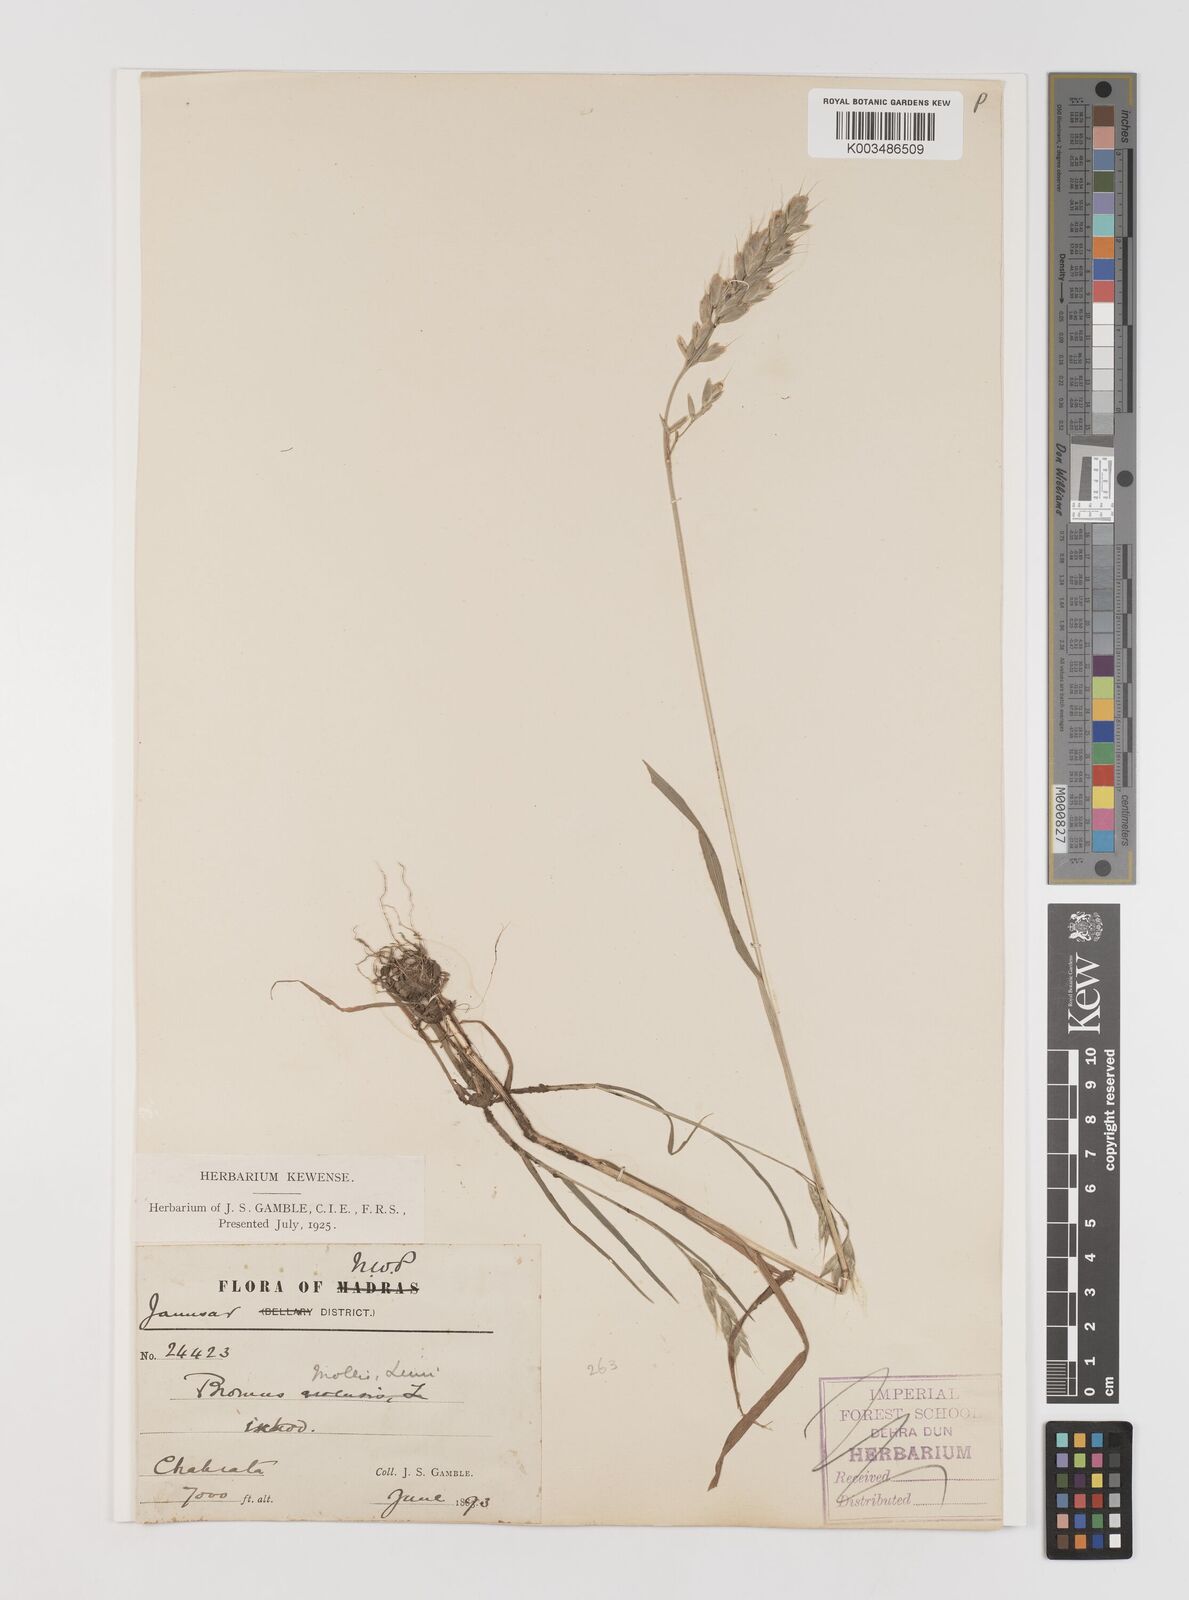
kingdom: Plantae
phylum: Tracheophyta
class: Liliopsida
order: Poales
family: Poaceae
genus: Bromus
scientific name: Bromus hordeaceus
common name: Soft brome
